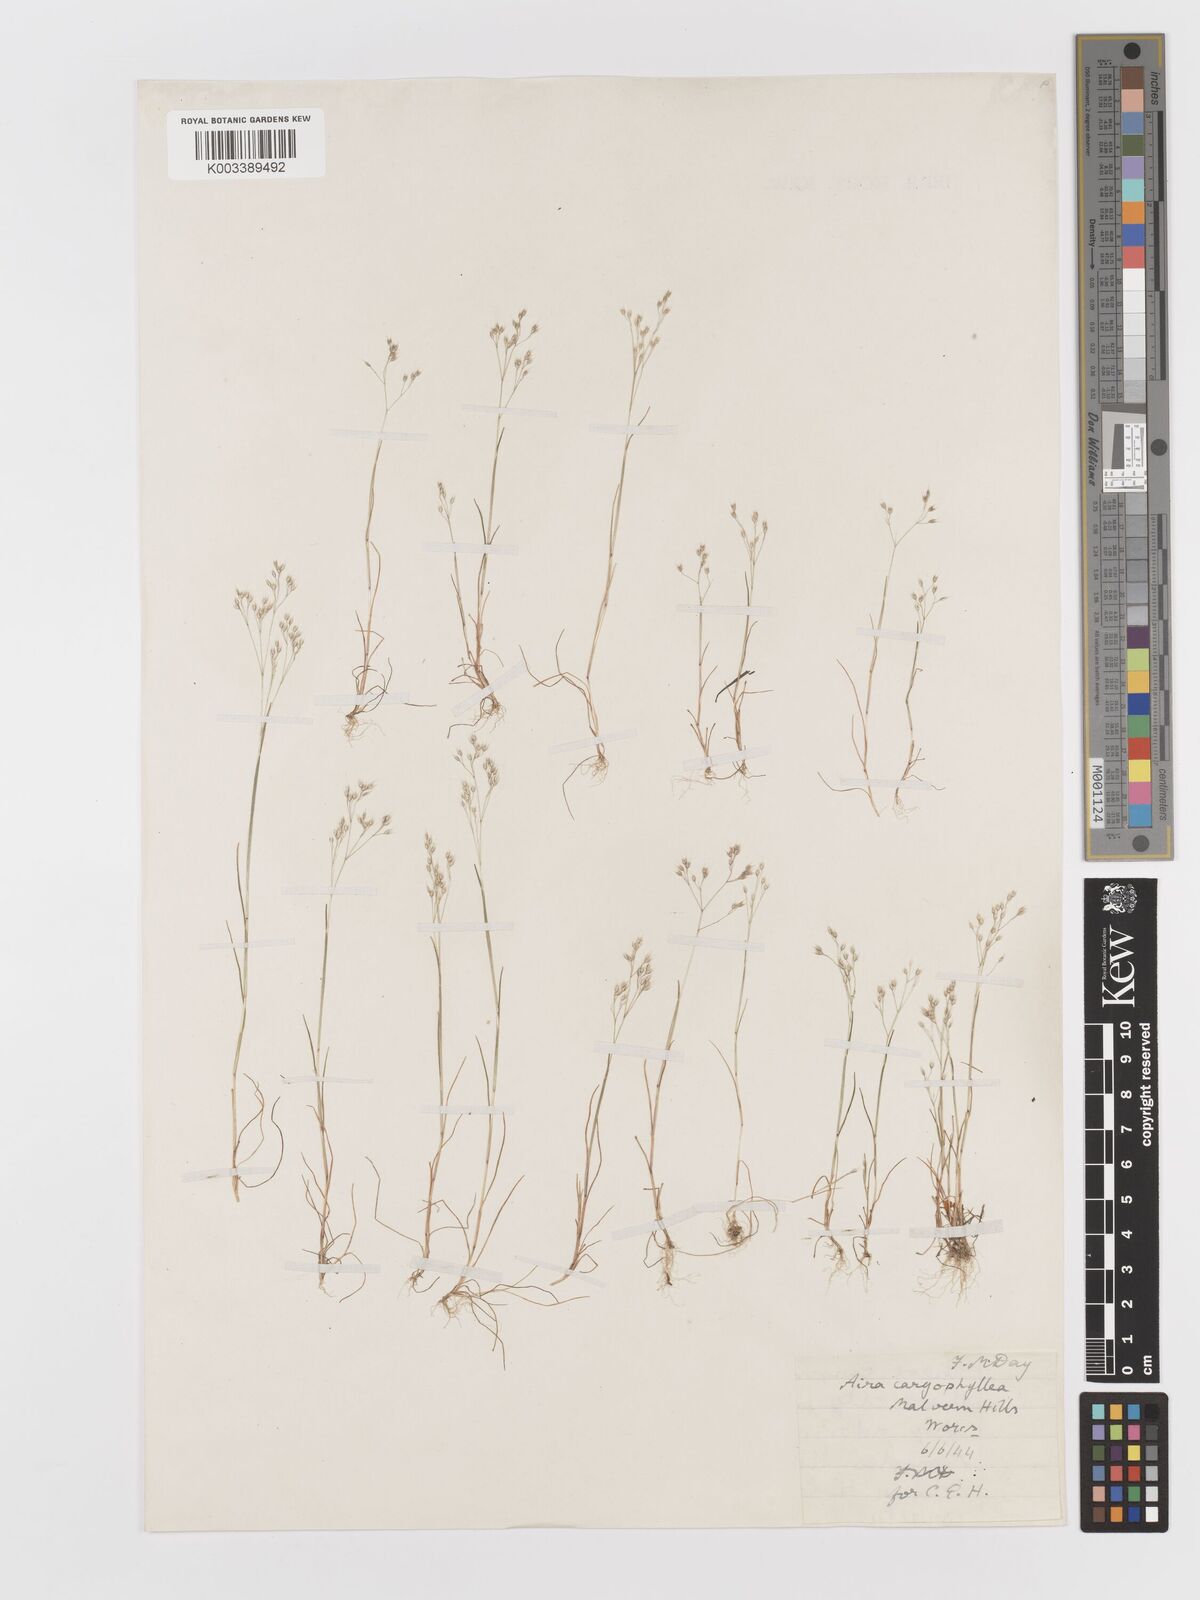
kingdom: Plantae
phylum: Tracheophyta
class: Liliopsida
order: Poales
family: Poaceae
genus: Aira
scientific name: Aira caryophyllea
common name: Silver hairgrass
